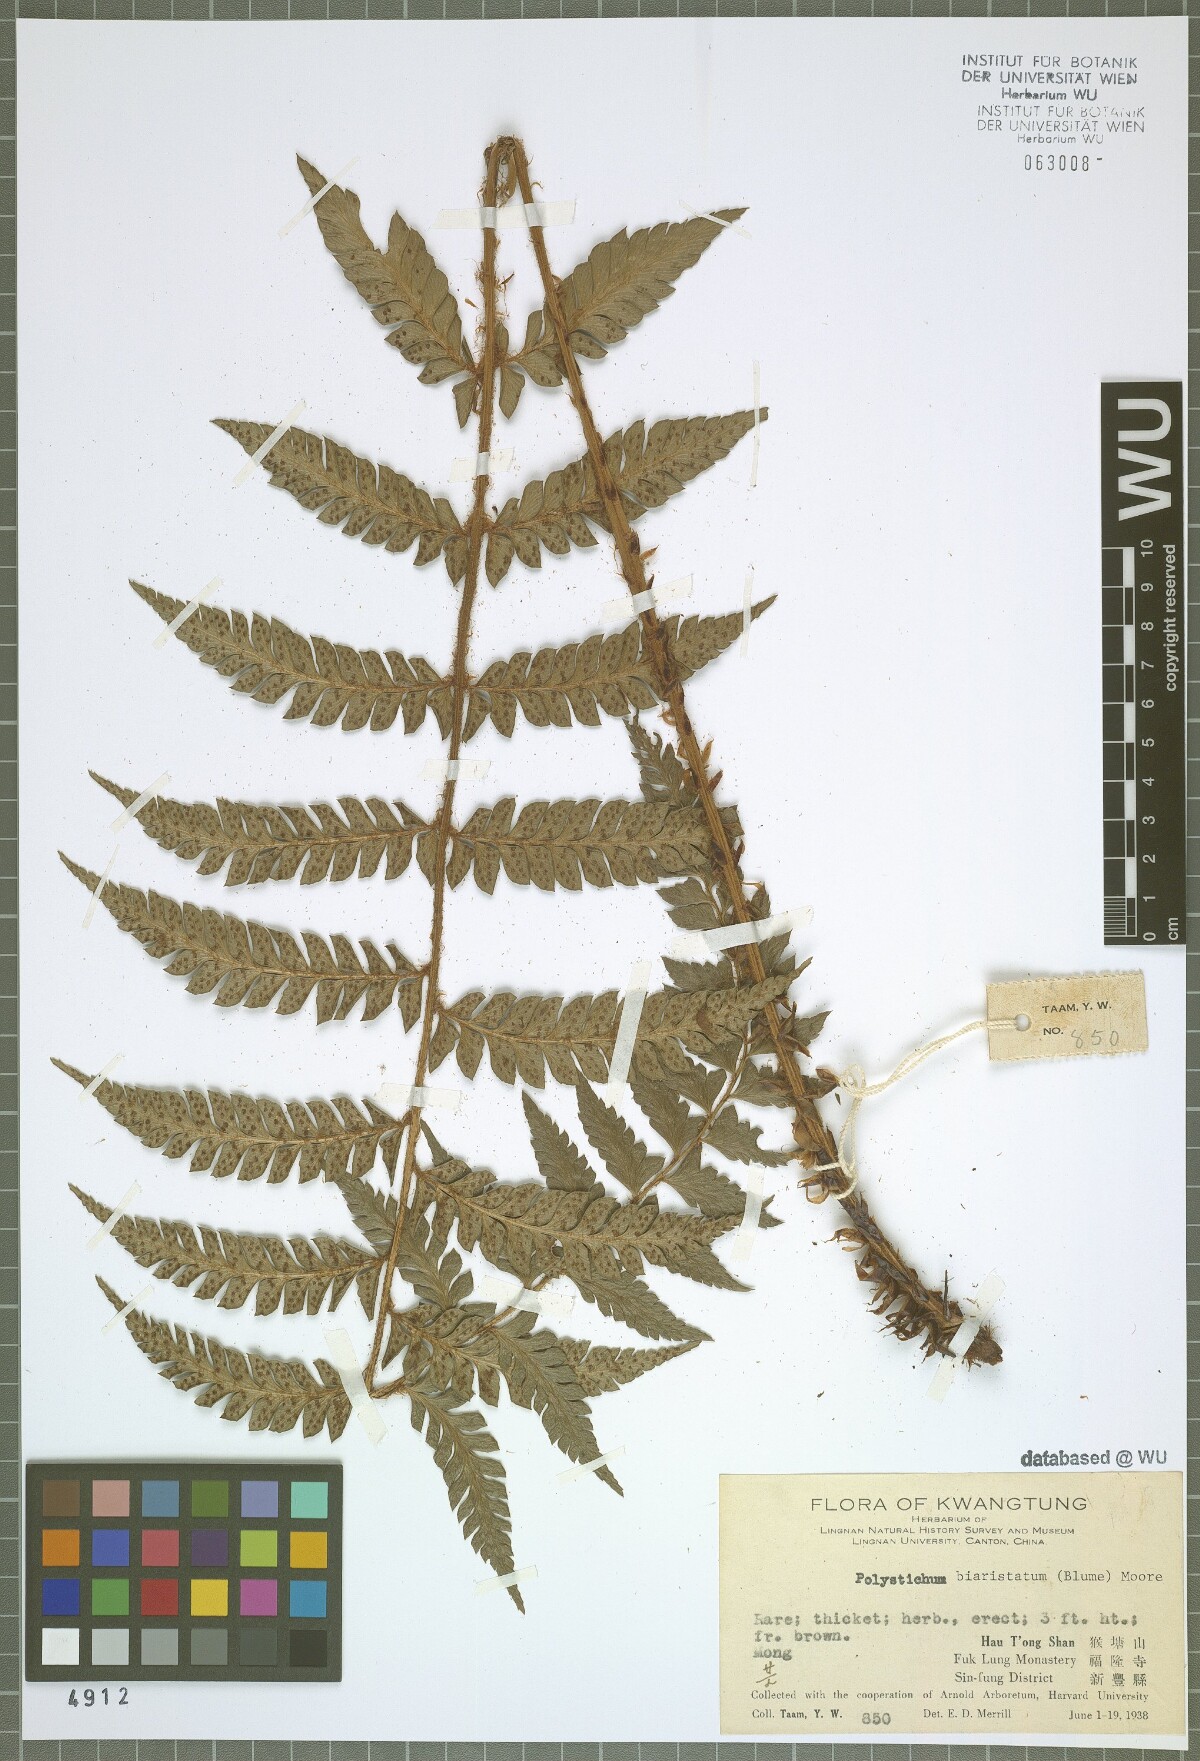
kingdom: Plantae
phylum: Tracheophyta
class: Polypodiopsida
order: Polypodiales
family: Dryopteridaceae
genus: Polystichum
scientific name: Polystichum biaristatum
